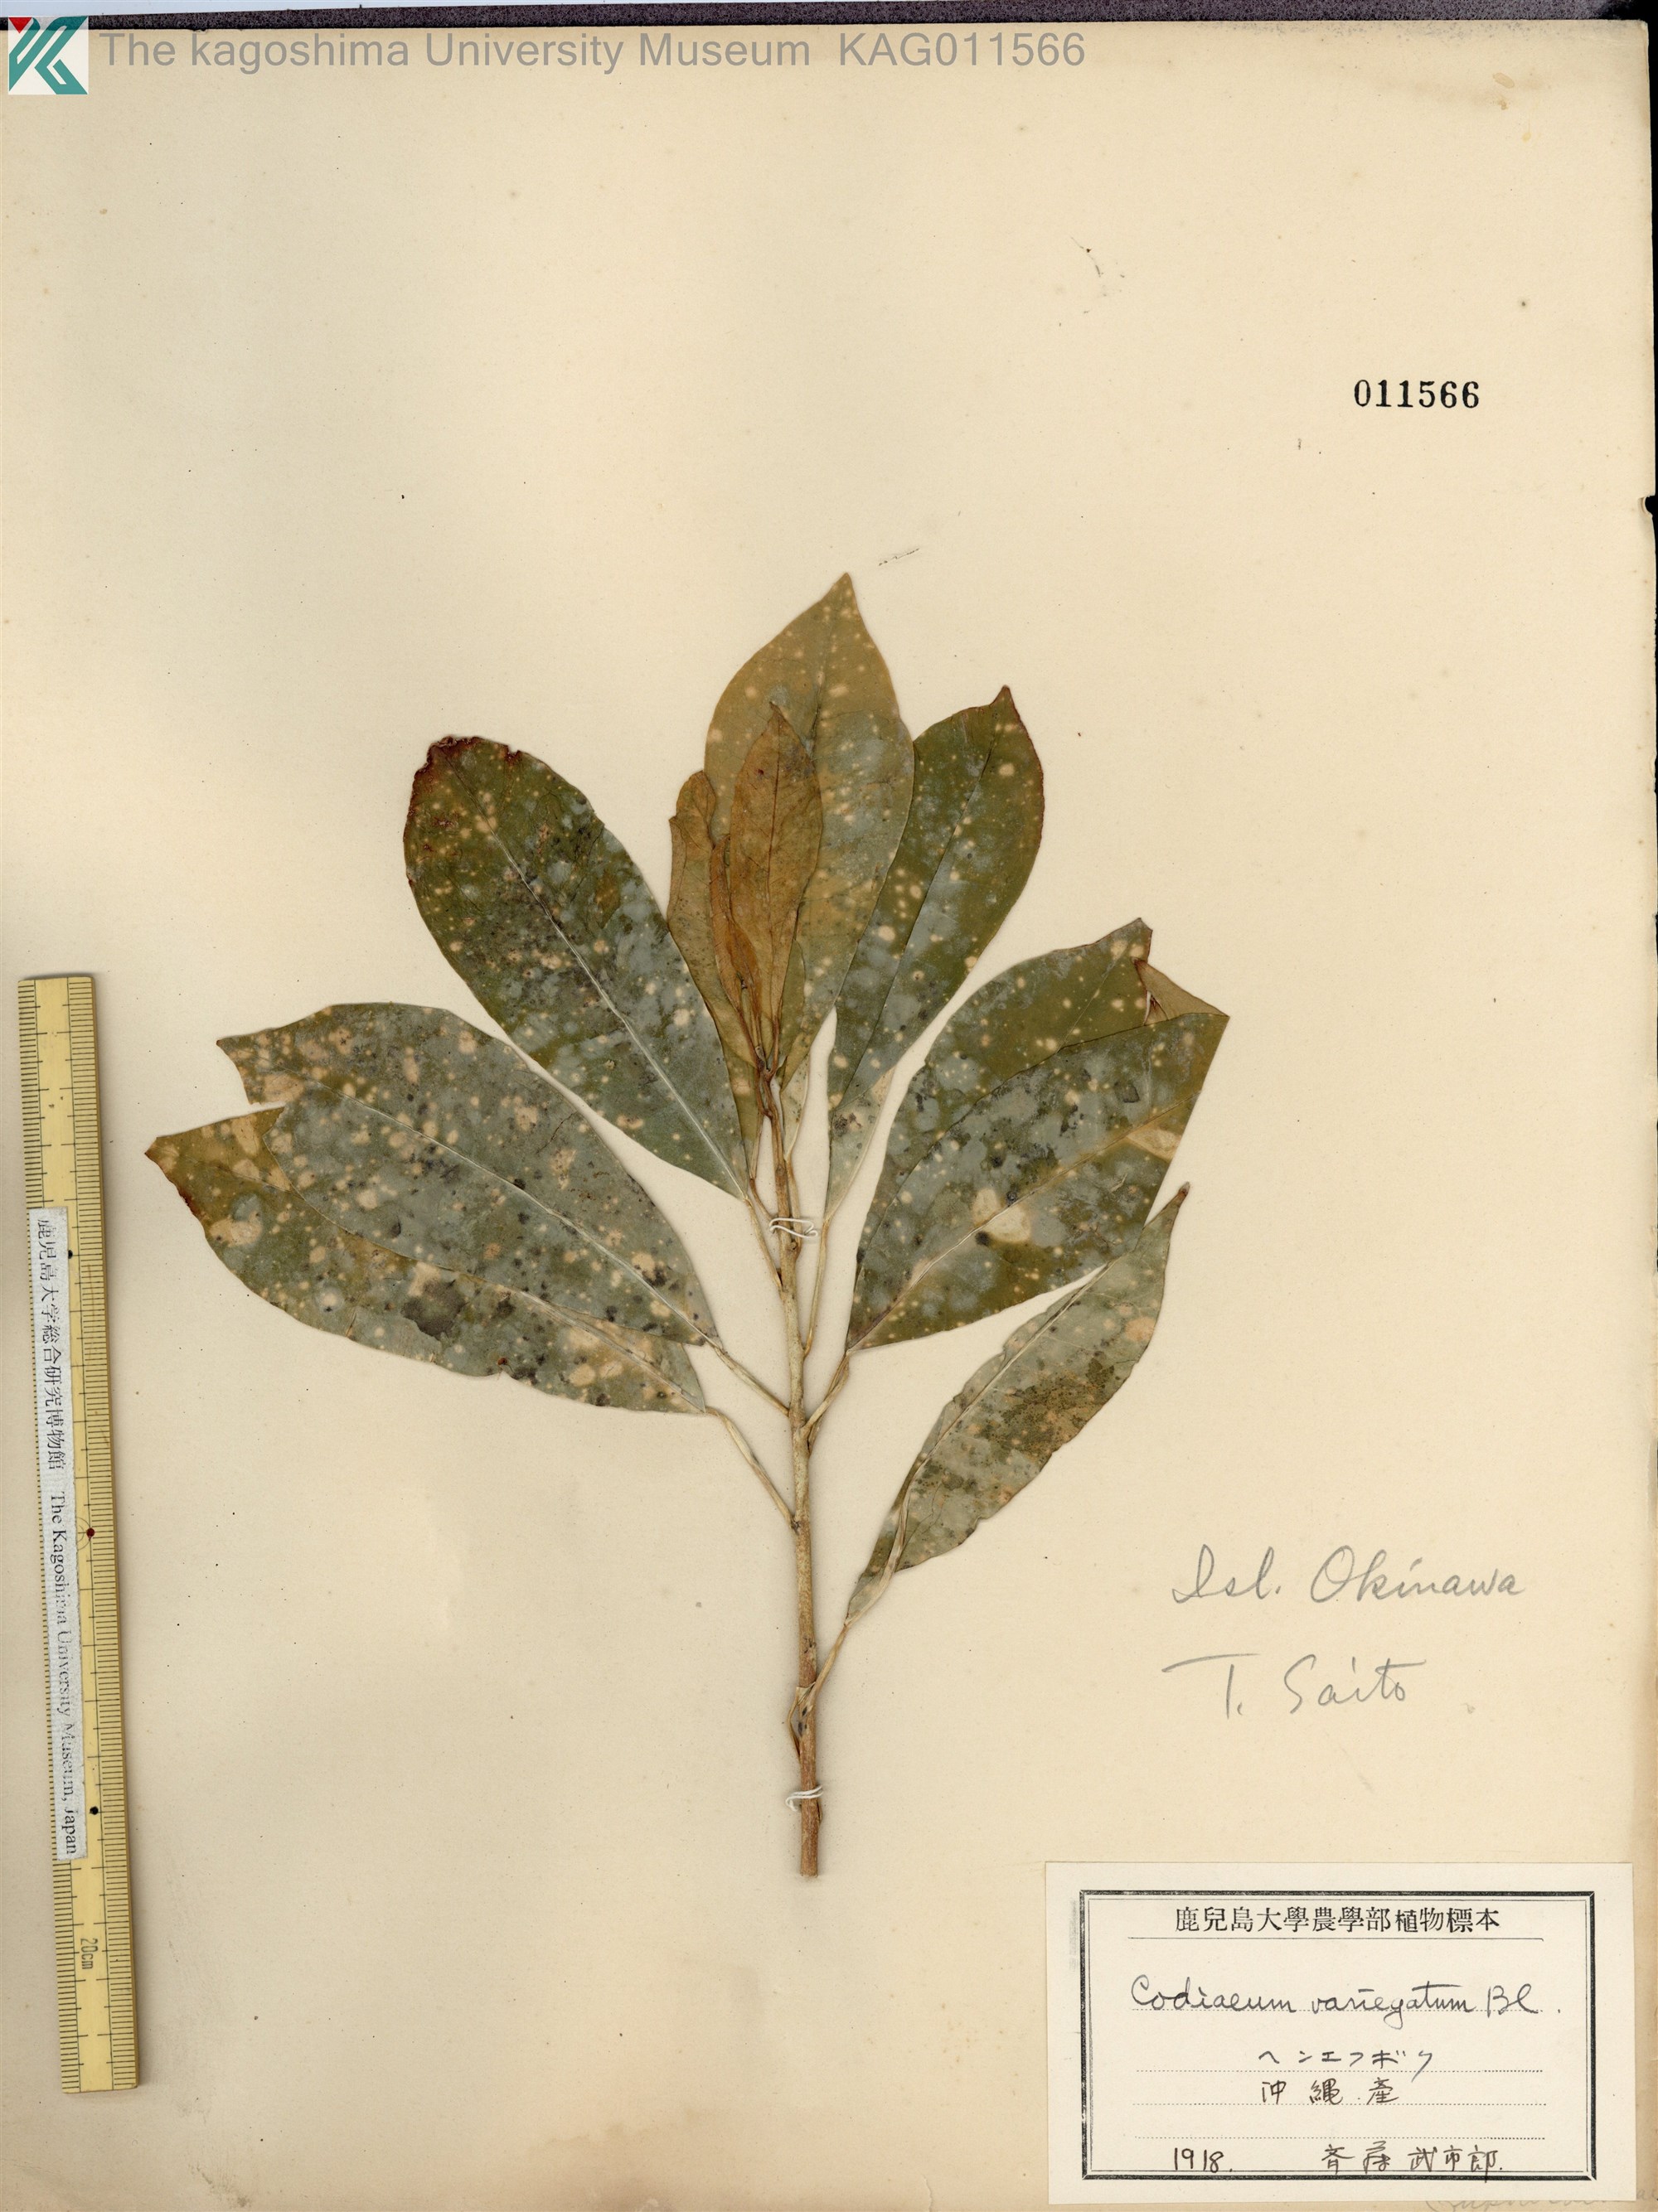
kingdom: Plantae
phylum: Tracheophyta
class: Magnoliopsida
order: Malpighiales
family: Euphorbiaceae
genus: Codiaeum
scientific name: Codiaeum variegatum
